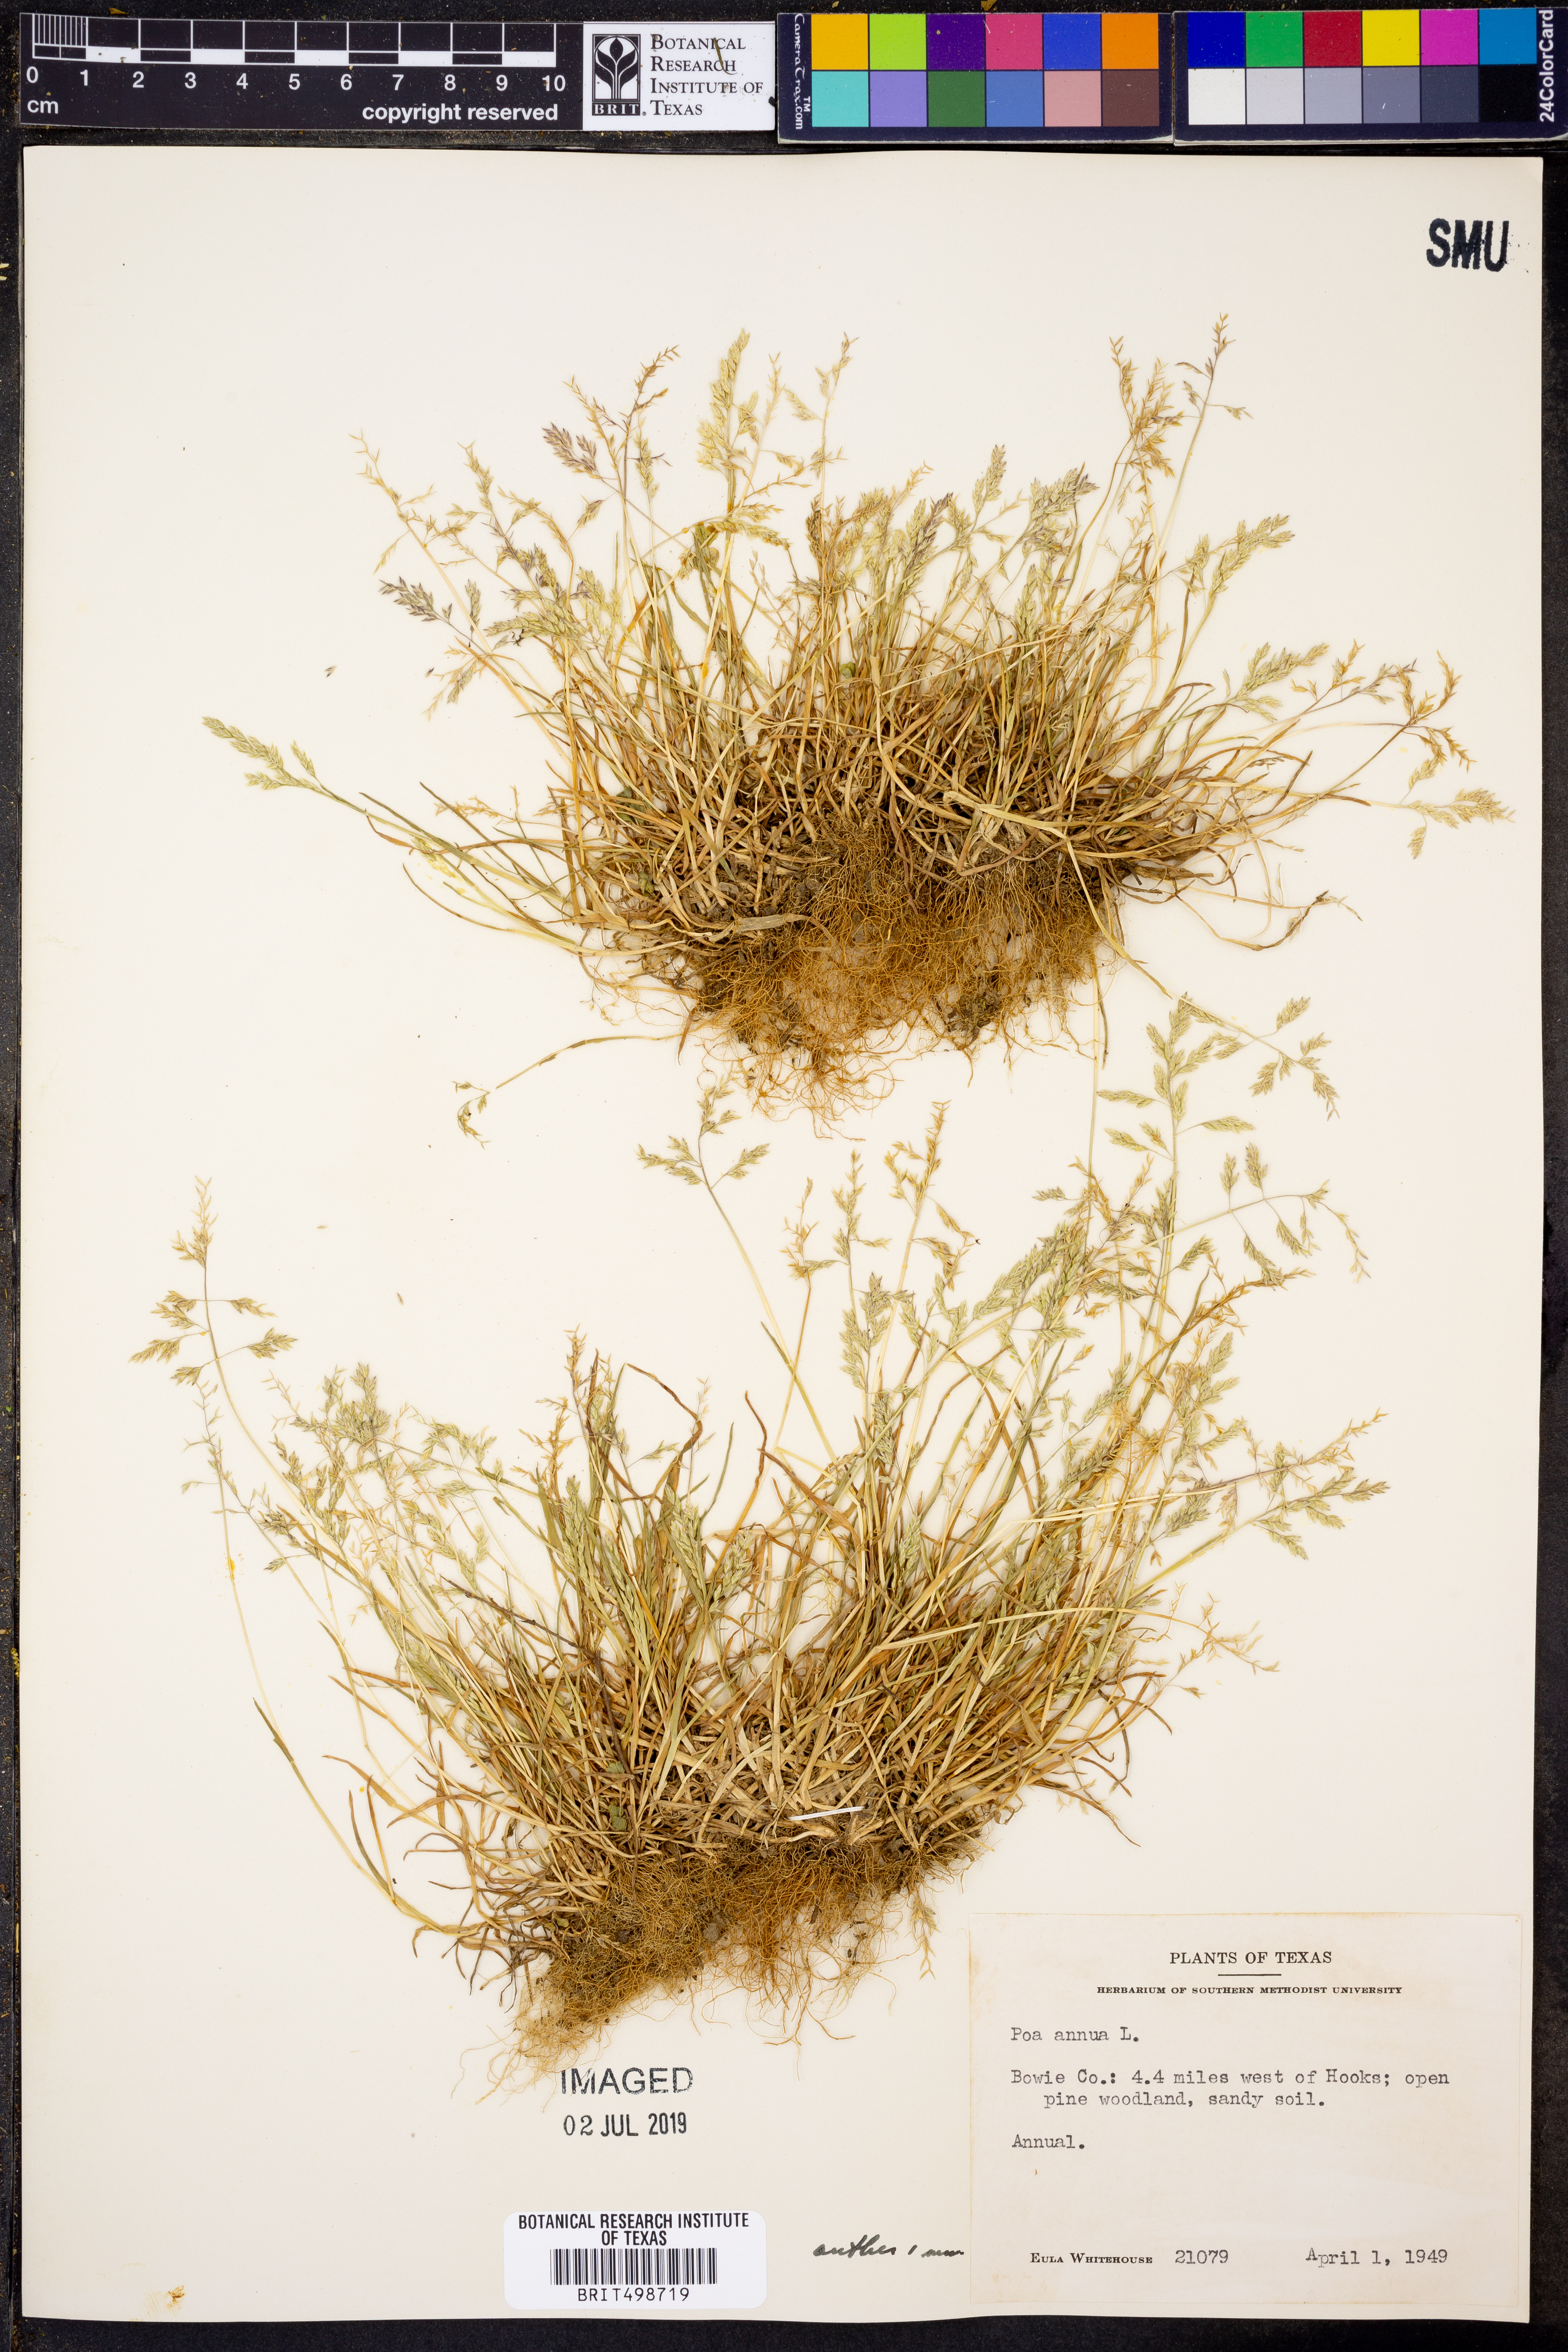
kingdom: Plantae
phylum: Tracheophyta
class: Liliopsida
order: Poales
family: Poaceae
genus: Poa
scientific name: Poa annua
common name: Annual bluegrass
